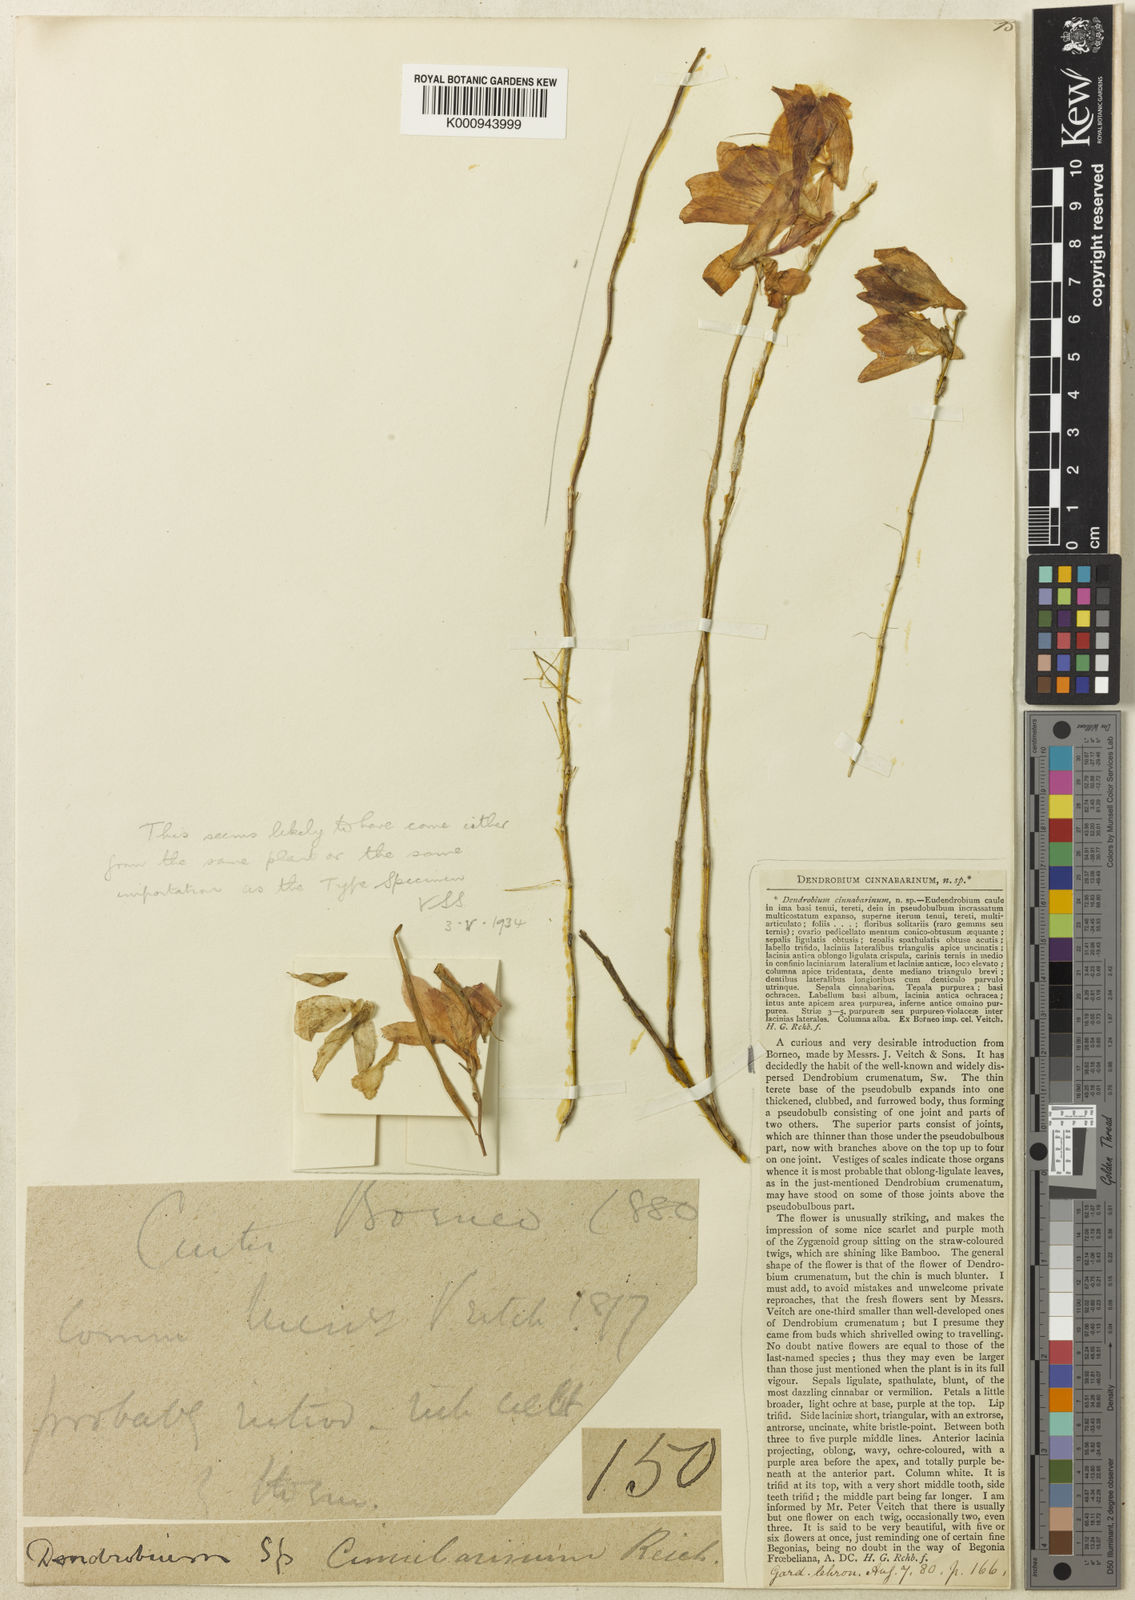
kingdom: Plantae
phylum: Tracheophyta
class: Liliopsida
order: Asparagales
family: Orchidaceae
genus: Dendrobium
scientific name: Dendrobium cinnabarinum
